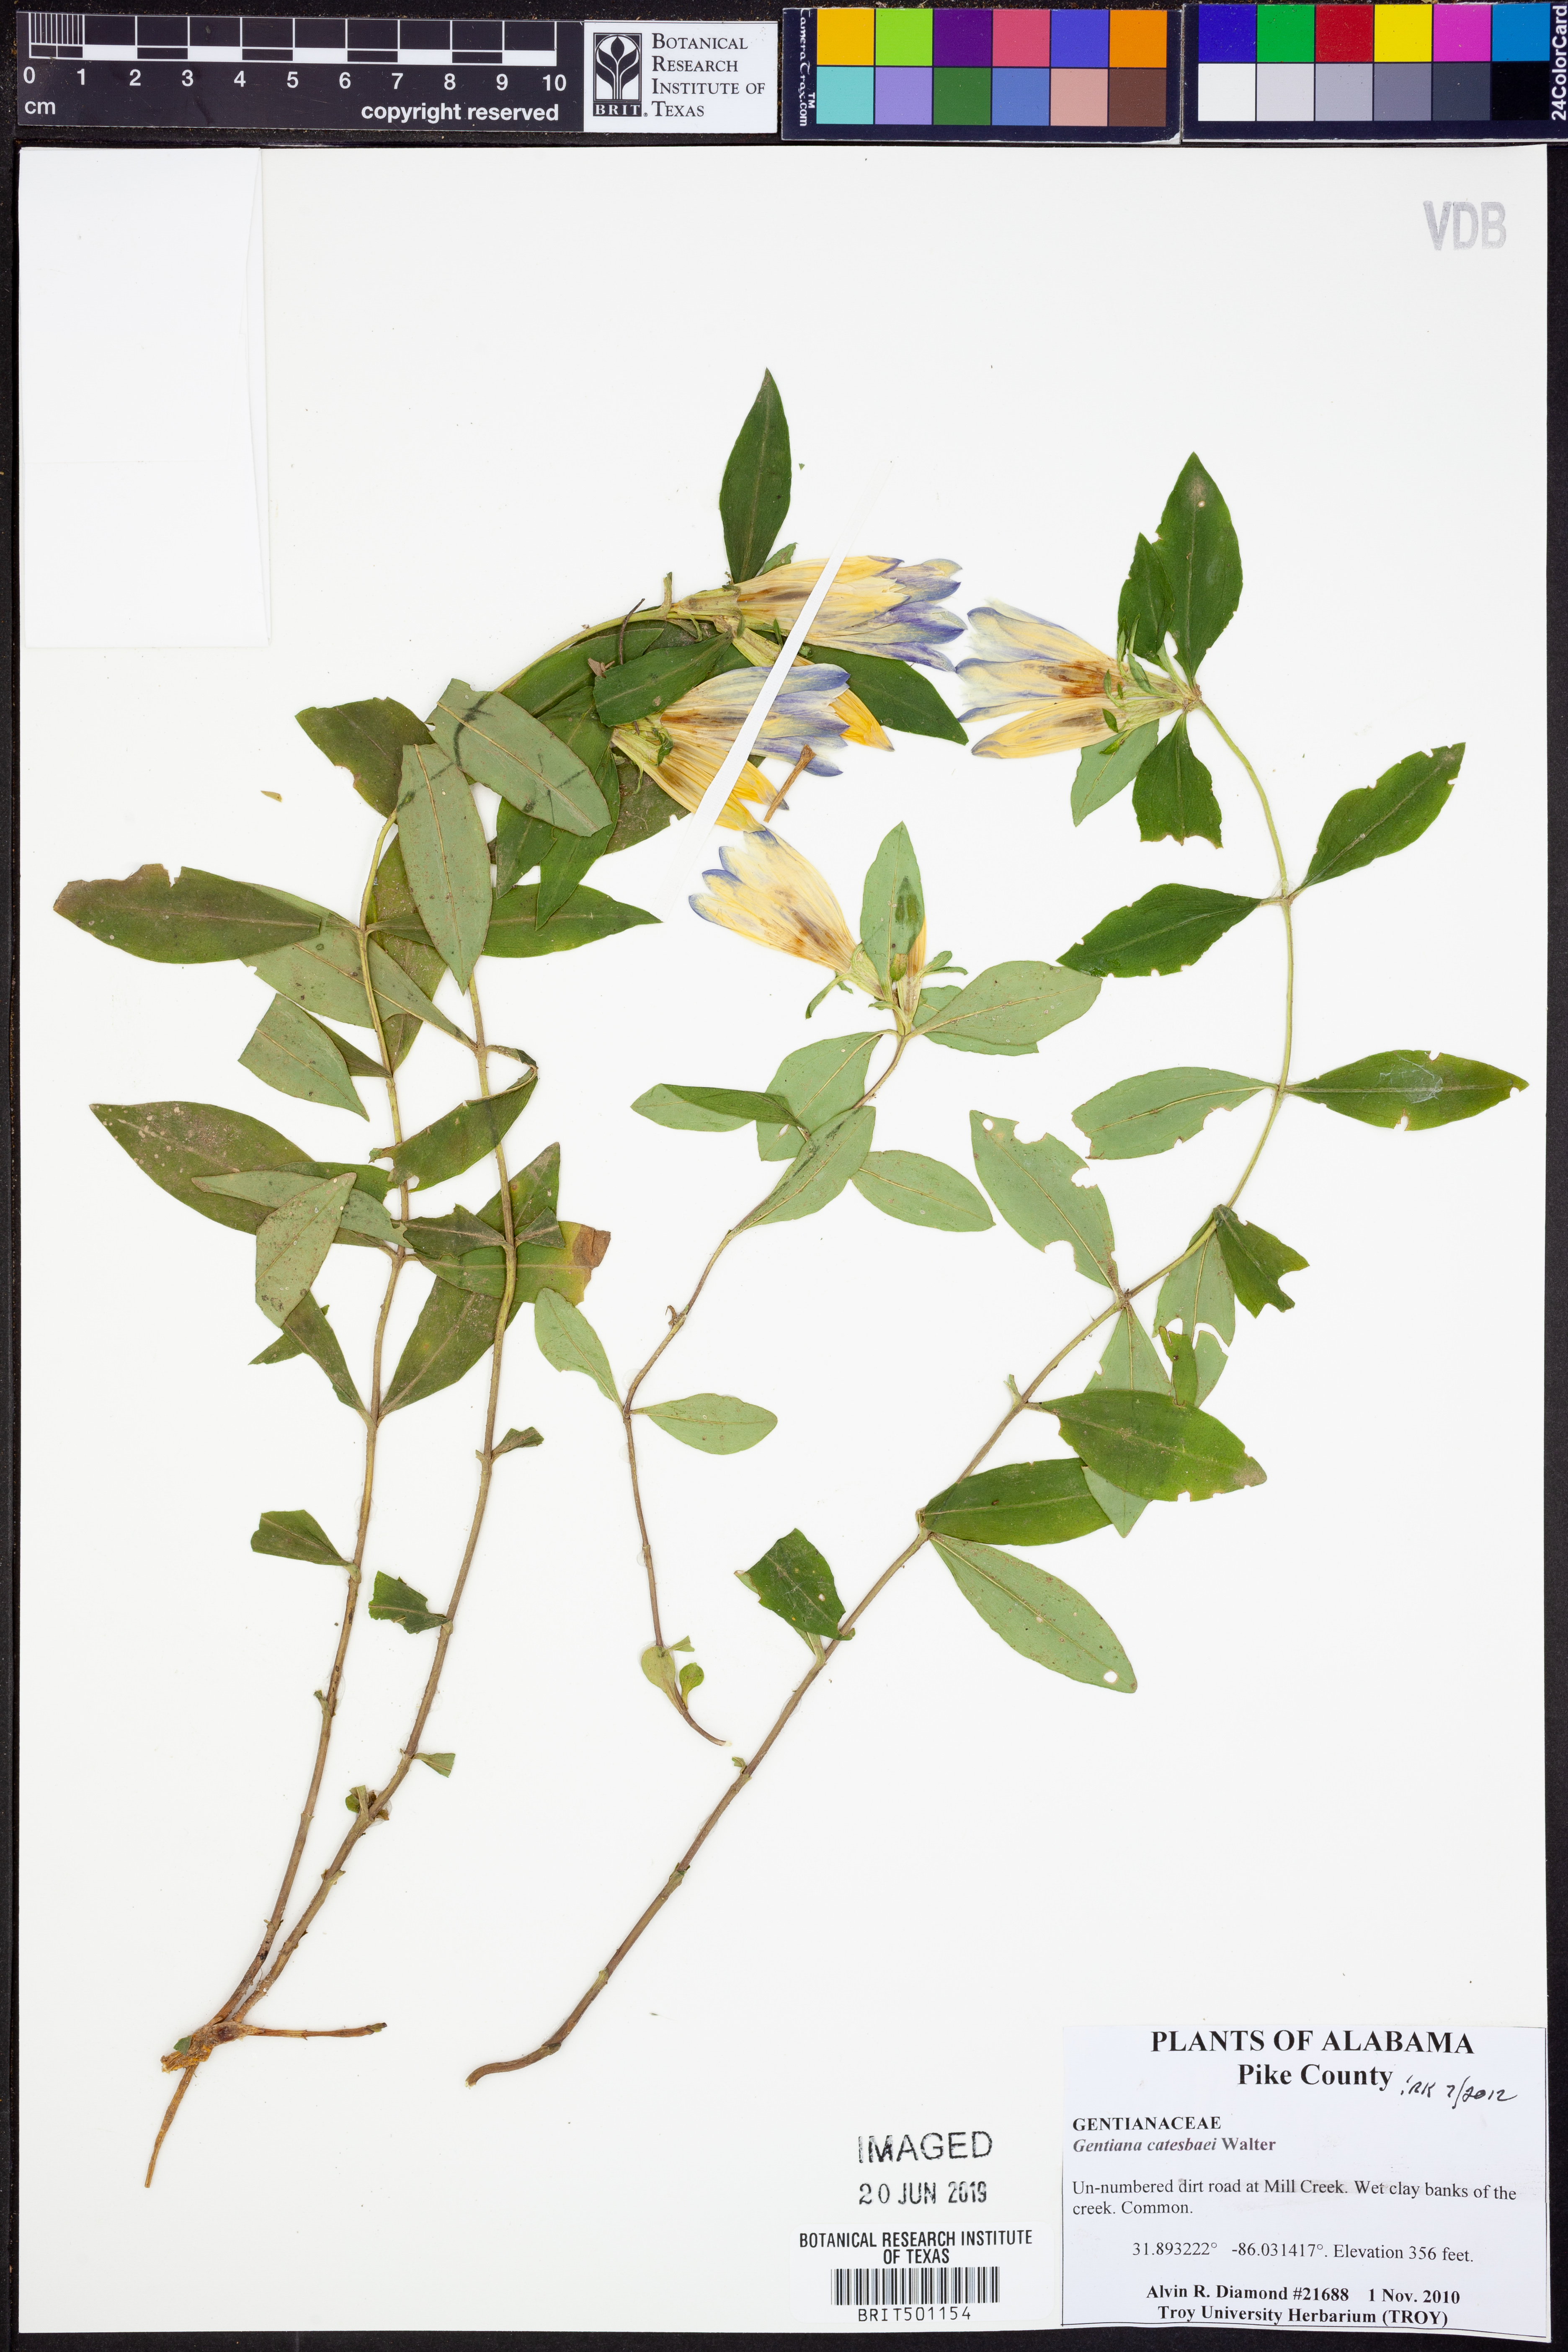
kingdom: Plantae
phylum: Tracheophyta
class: Magnoliopsida
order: Gentianales
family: Gentianaceae
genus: Gentiana
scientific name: Gentiana catesbaei
